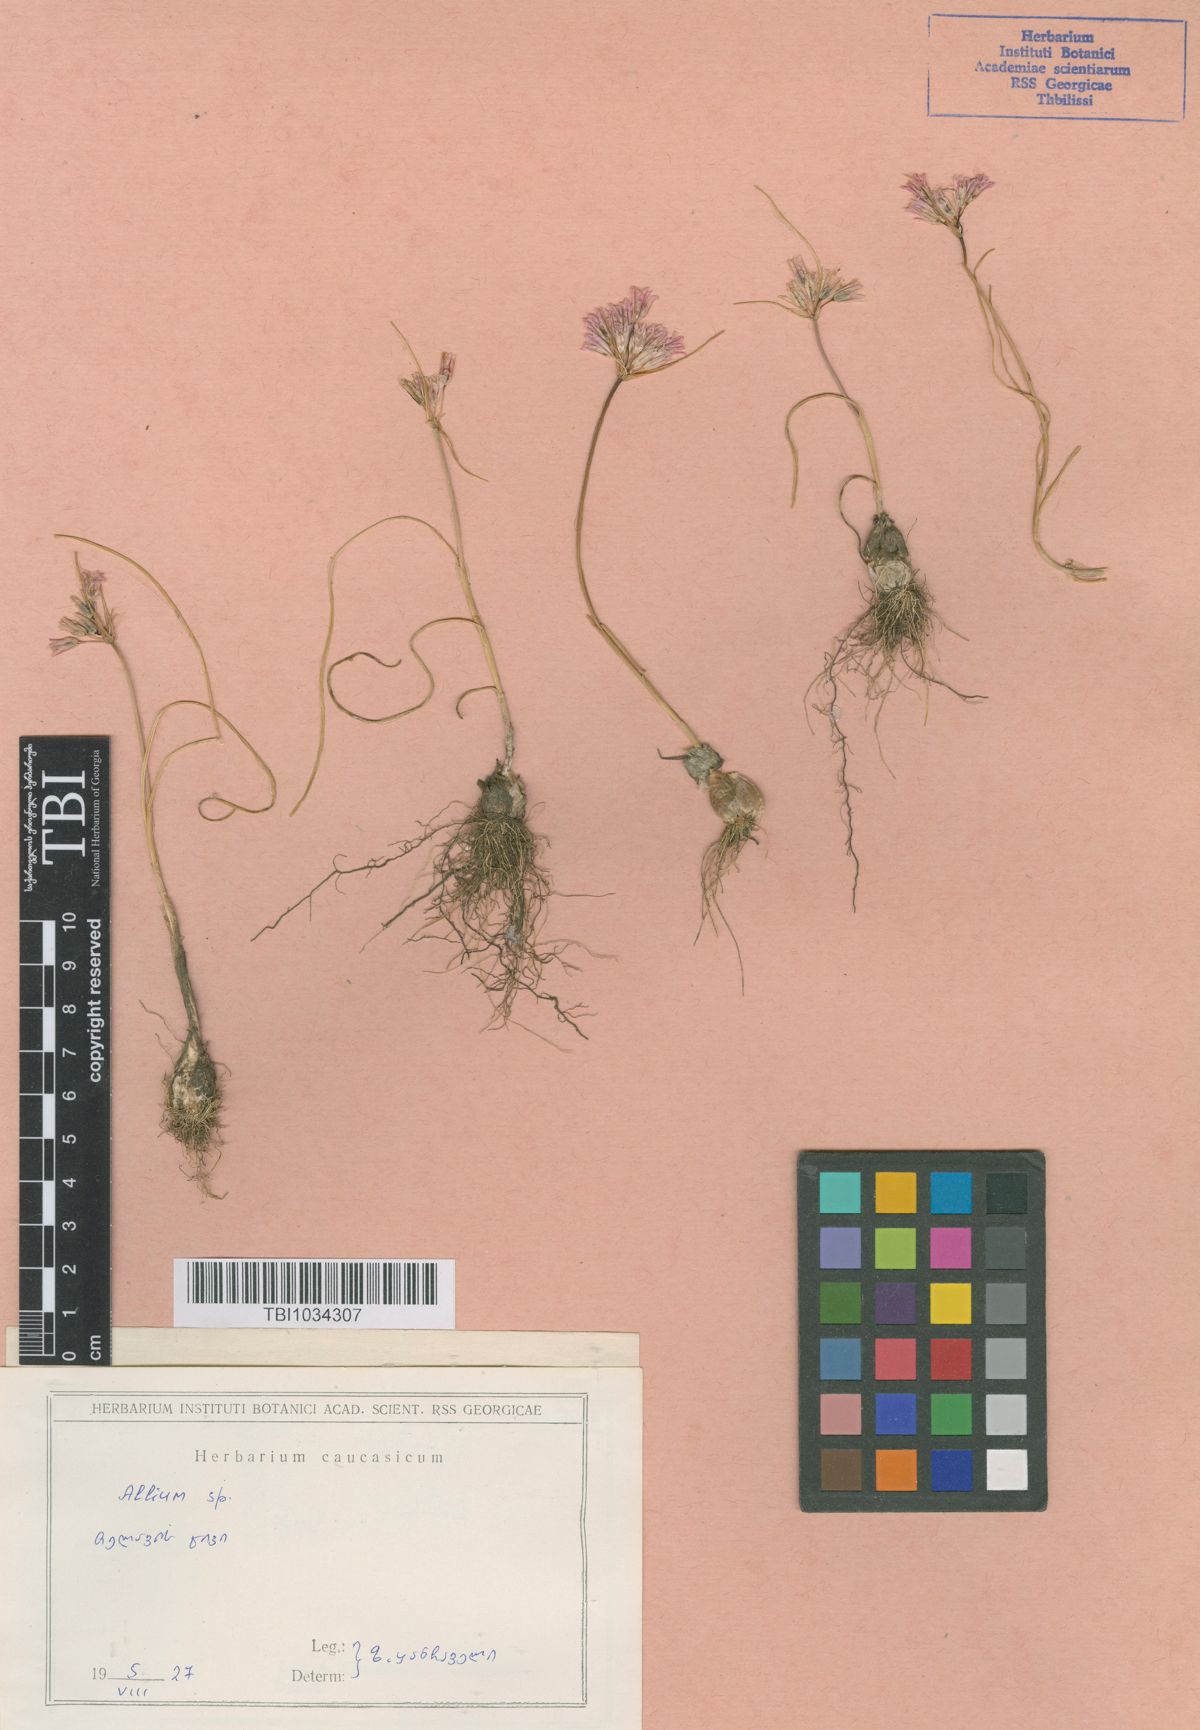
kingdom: Plantae
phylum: Tracheophyta
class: Liliopsida
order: Asparagales
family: Amaryllidaceae
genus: Allium
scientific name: Allium
